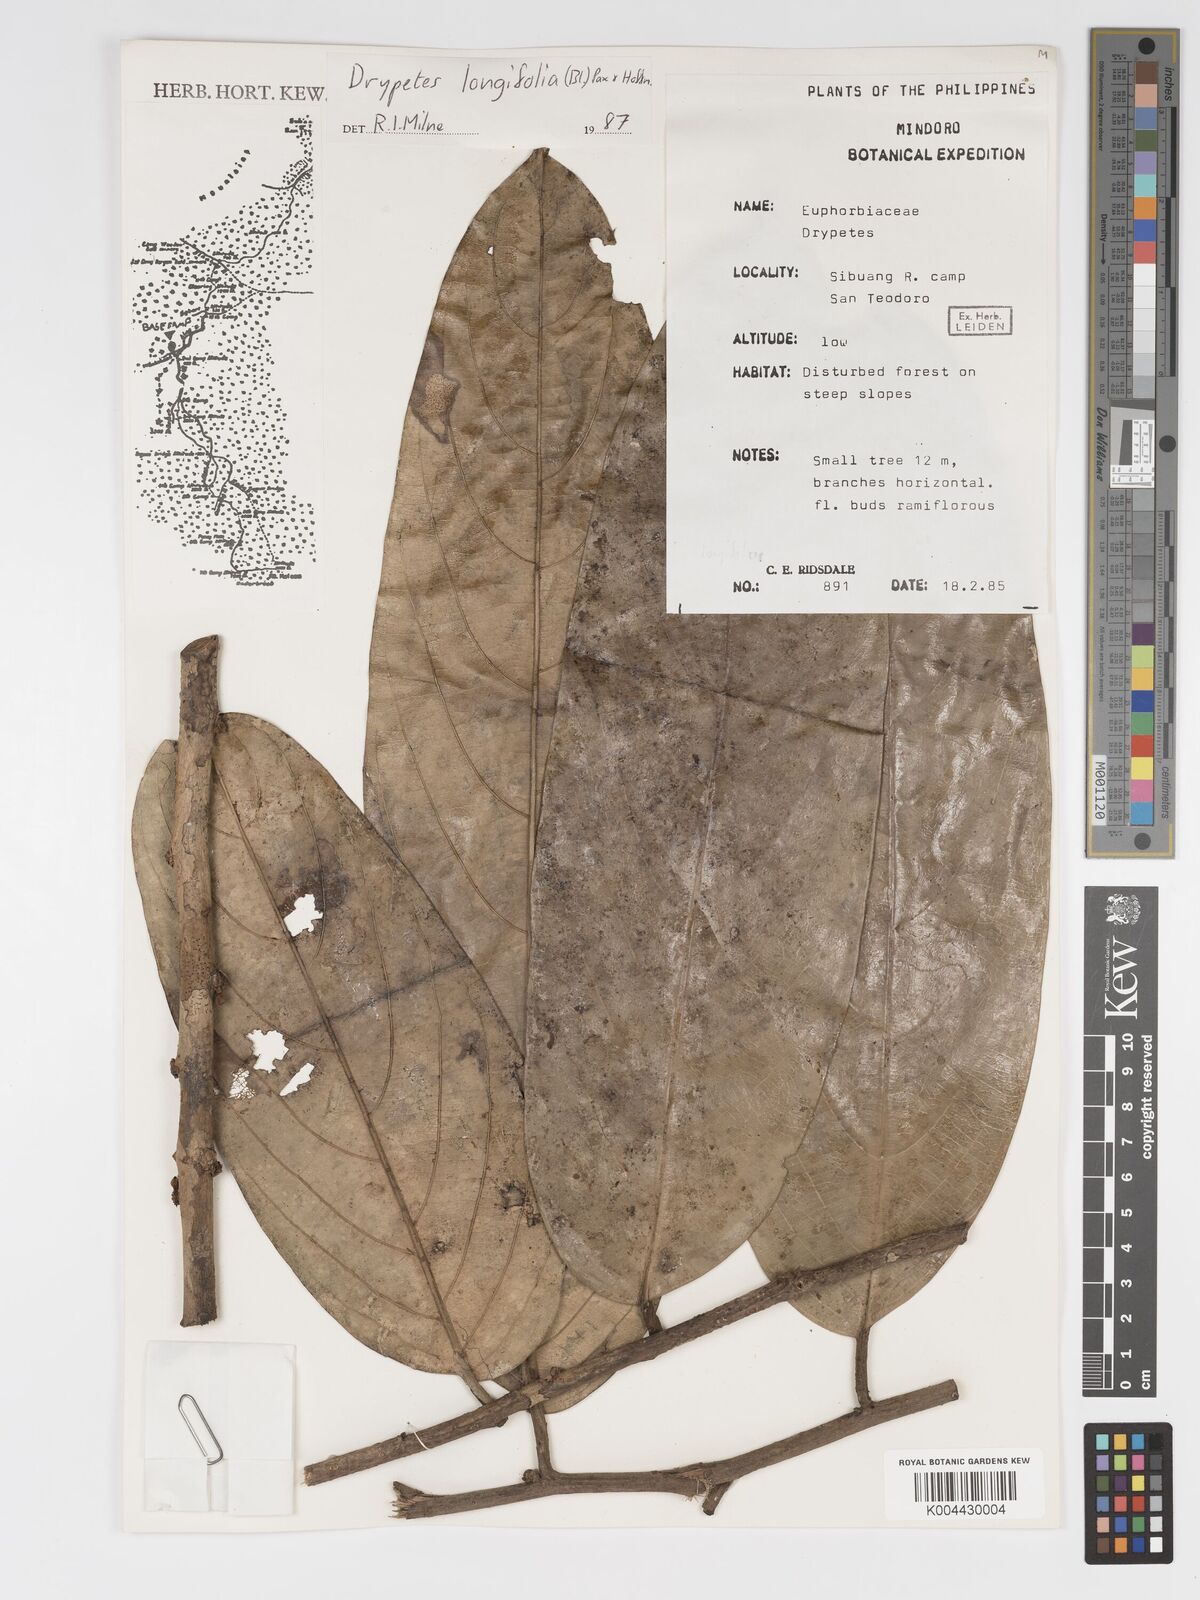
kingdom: Plantae
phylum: Tracheophyta
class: Magnoliopsida
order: Malpighiales
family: Putranjivaceae
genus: Drypetes
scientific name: Drypetes longifolia
